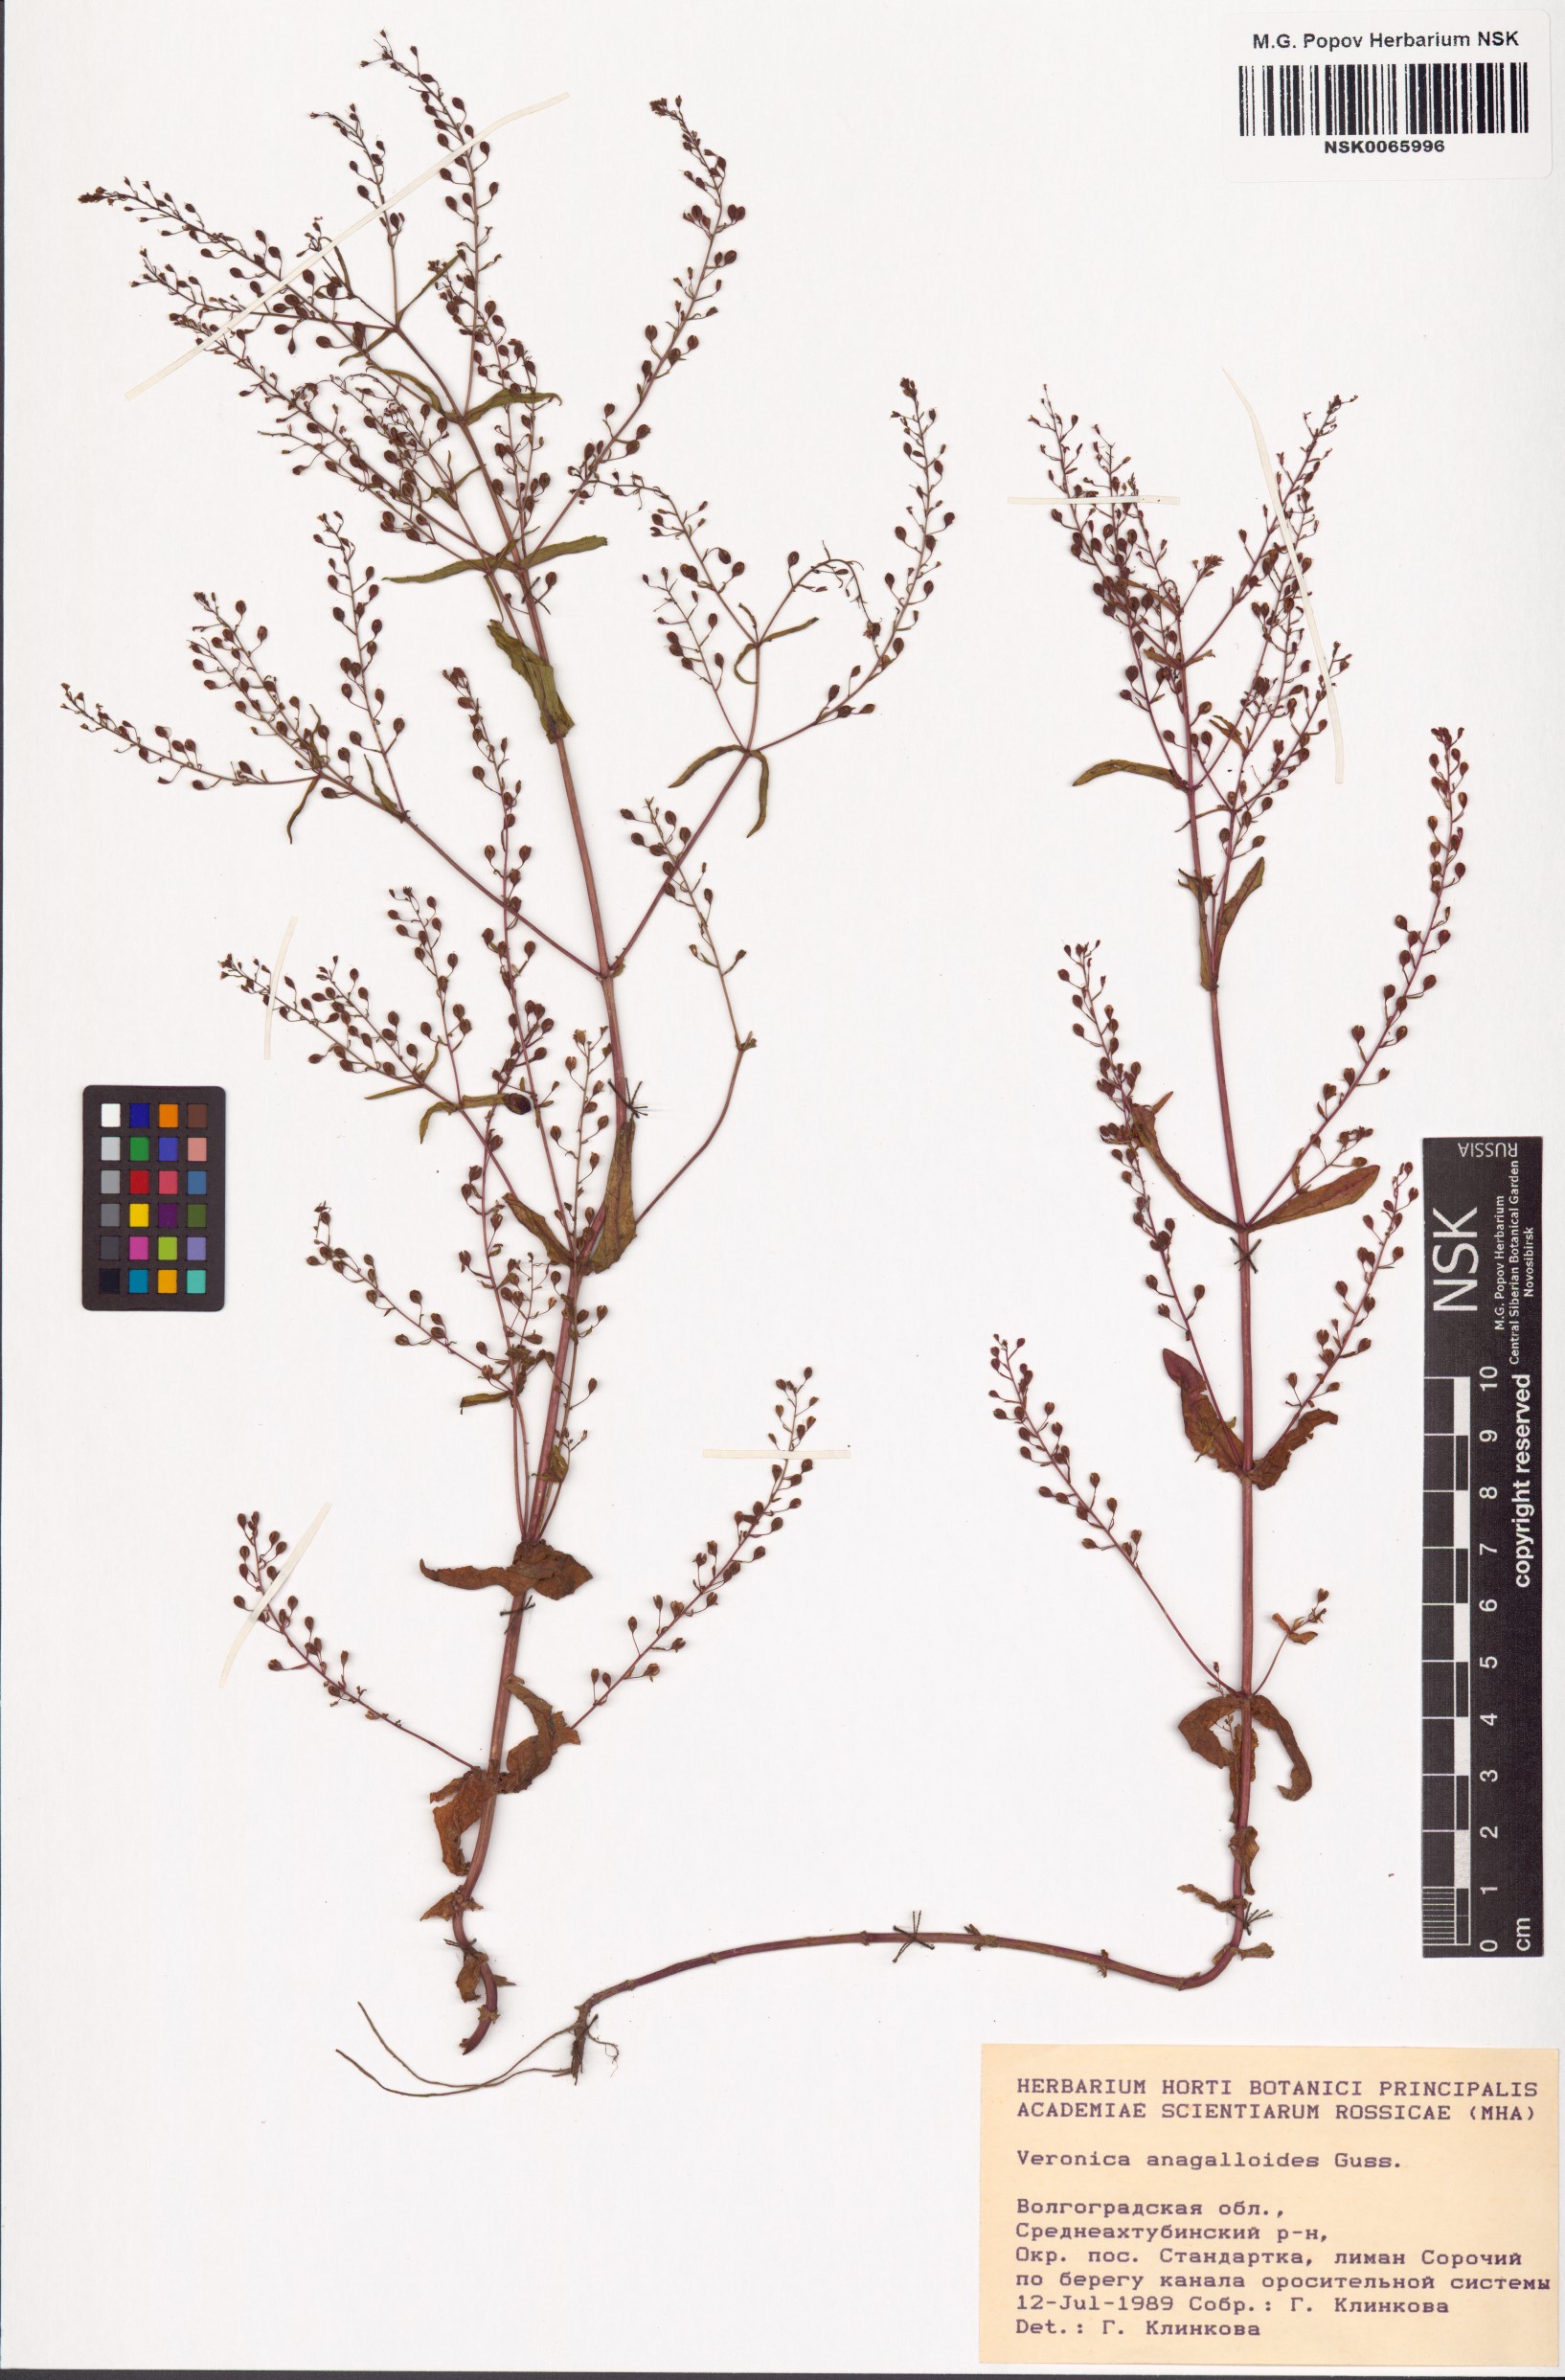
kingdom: Plantae
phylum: Tracheophyta
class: Magnoliopsida
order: Lamiales
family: Plantaginaceae
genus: Veronica
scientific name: Veronica anagalloides
